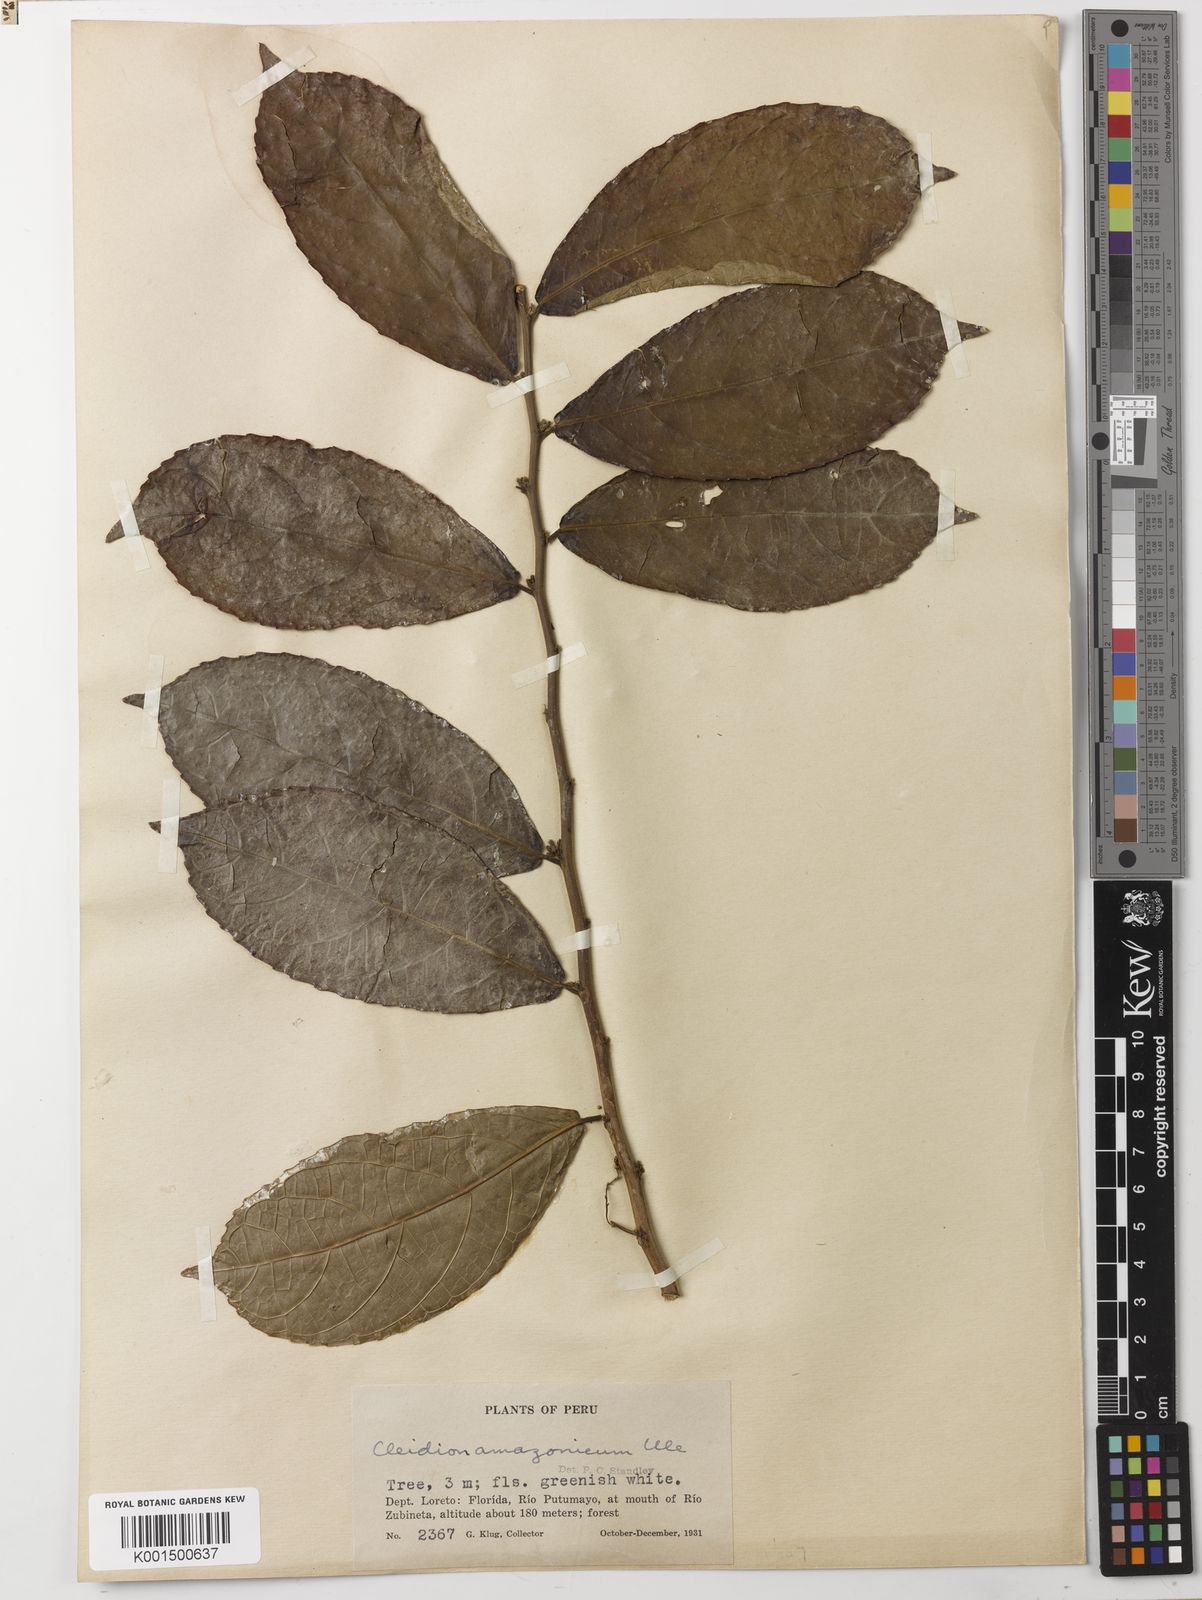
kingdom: Plantae
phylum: Tracheophyta
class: Magnoliopsida
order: Malpighiales
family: Euphorbiaceae
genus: Cleidion
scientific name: Cleidion amazonicum
